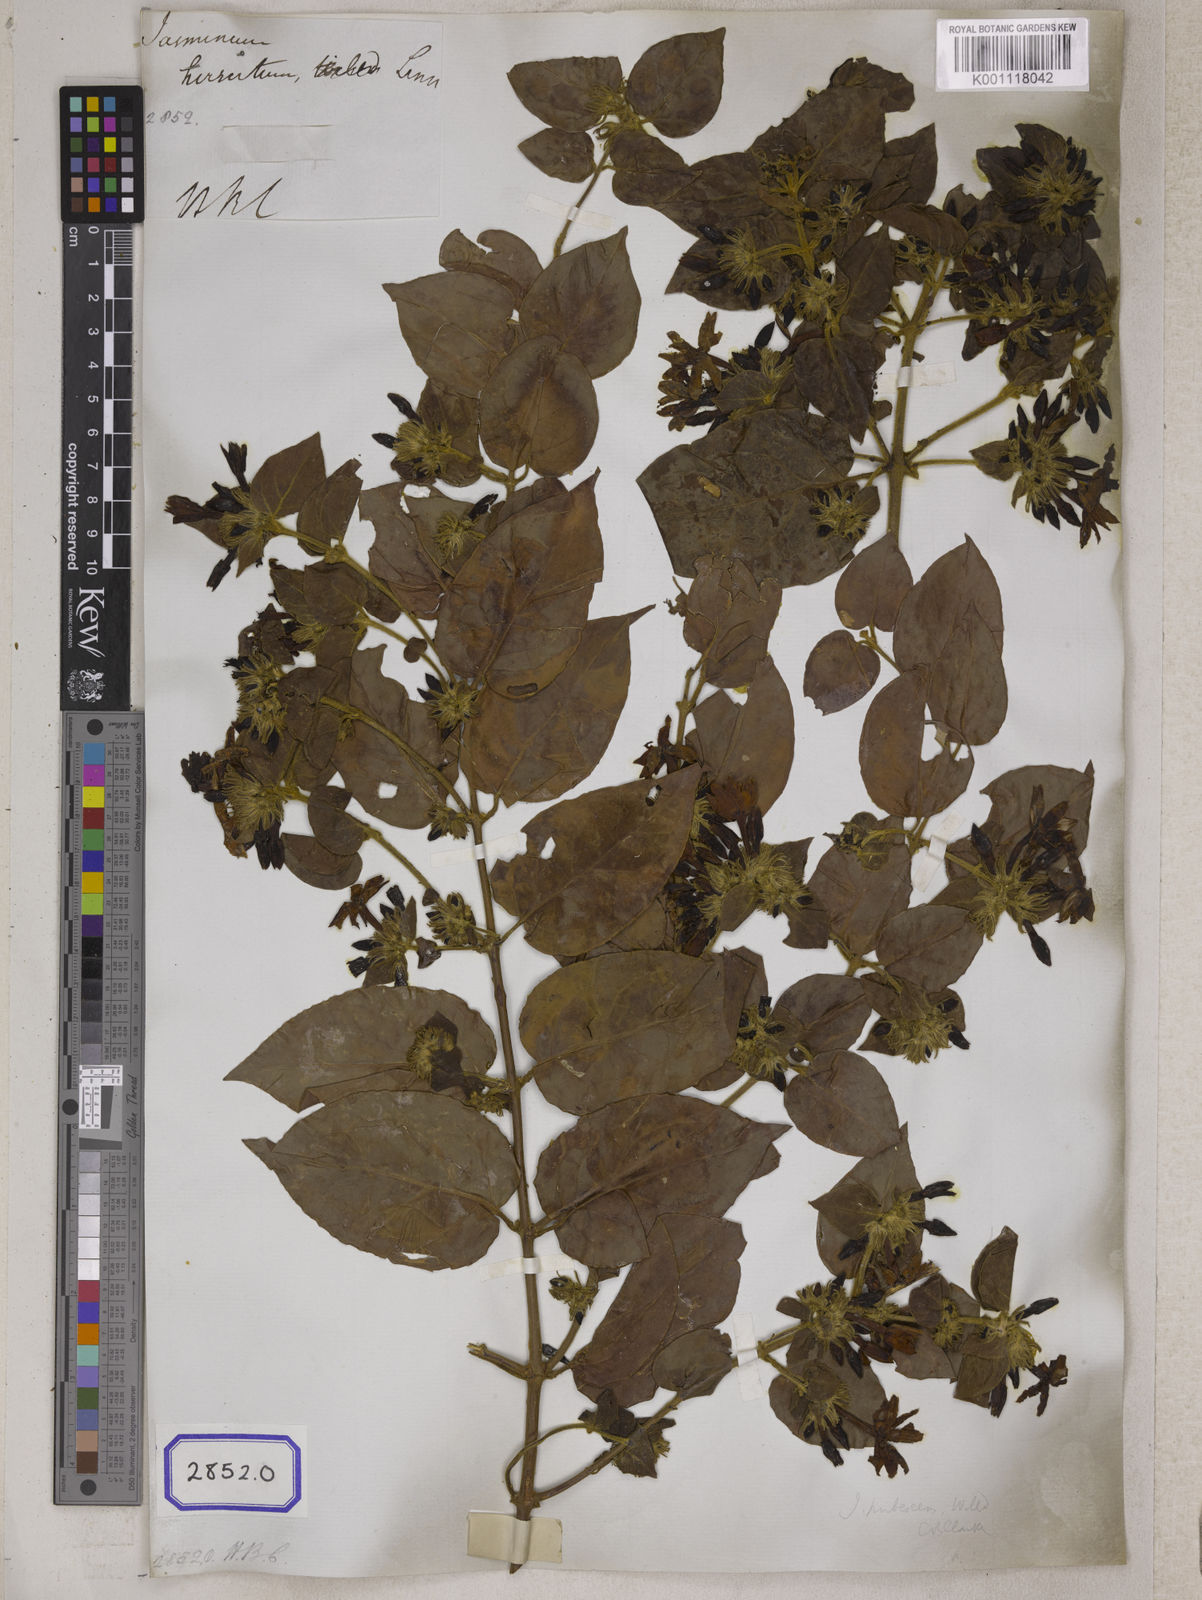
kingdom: Plantae
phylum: Tracheophyta
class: Magnoliopsida
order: Gentianales
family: Rubiaceae
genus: Guettarda
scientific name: Guettarda speciosa
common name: Sea randa
